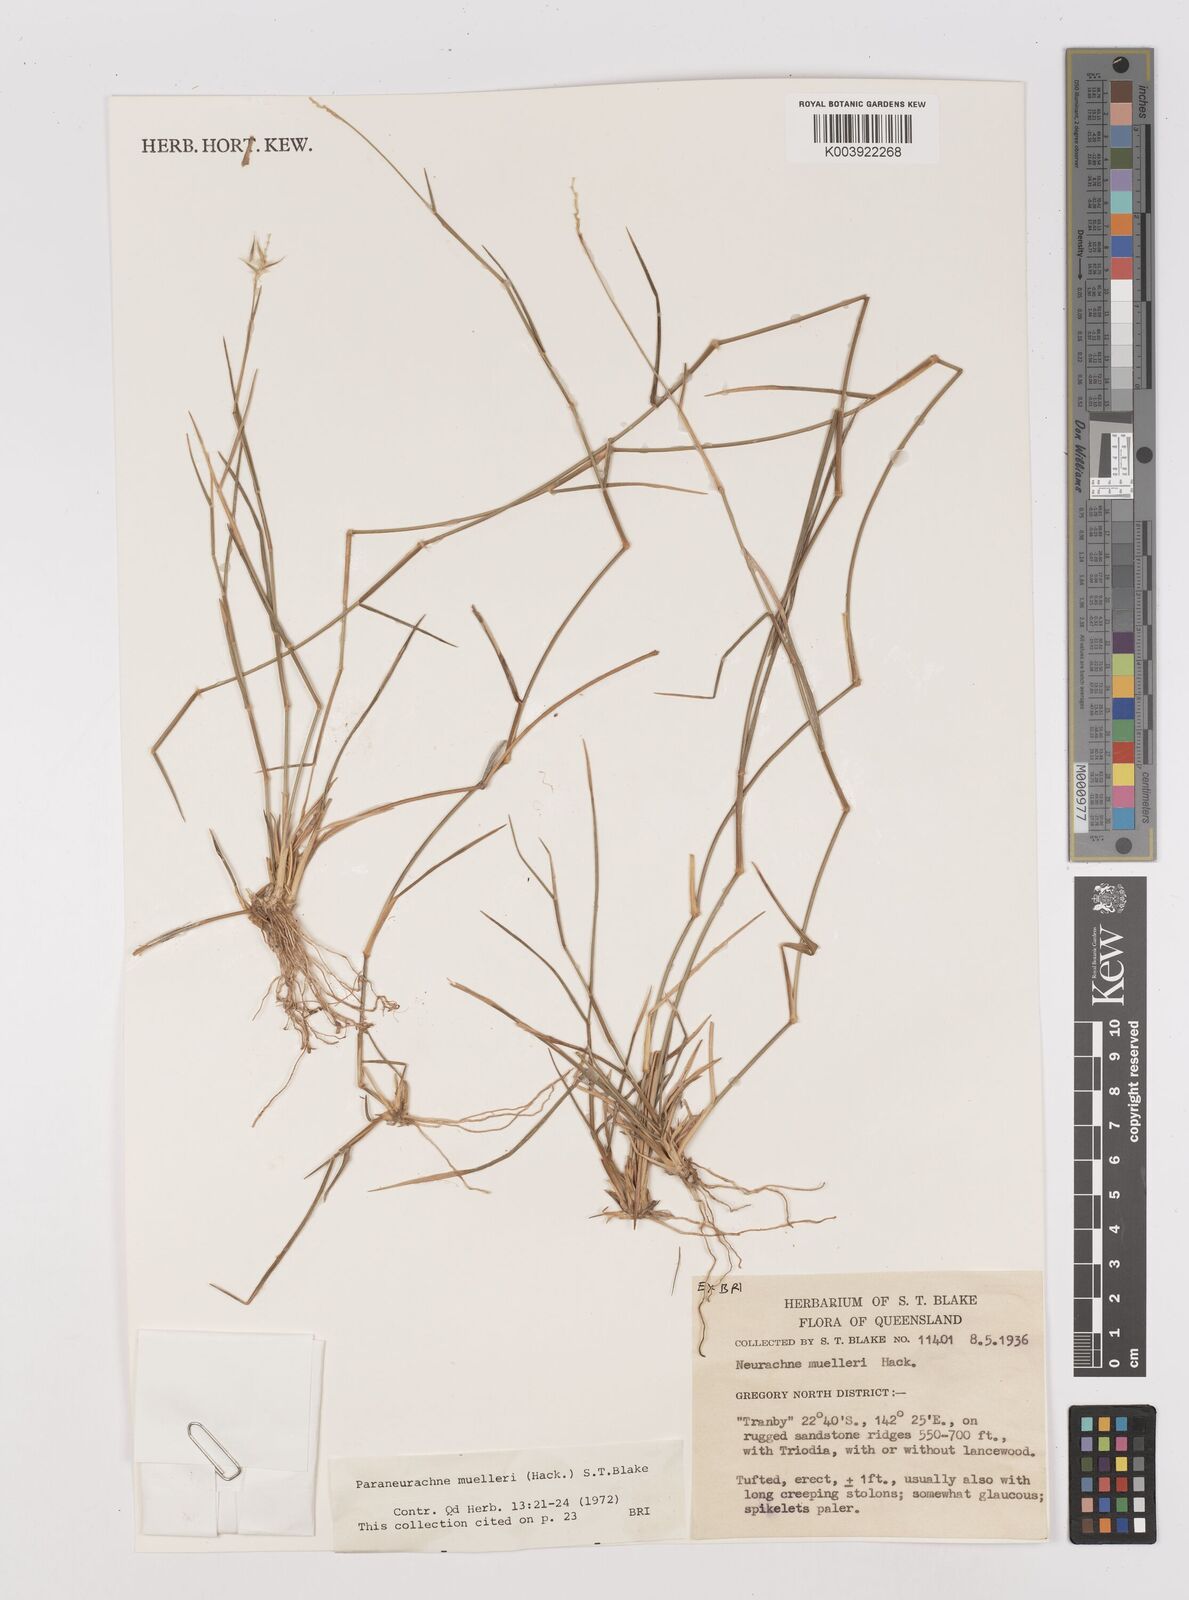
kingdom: Plantae
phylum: Tracheophyta
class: Liliopsida
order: Poales
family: Poaceae
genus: Neurachne
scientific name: Neurachne muelleri
